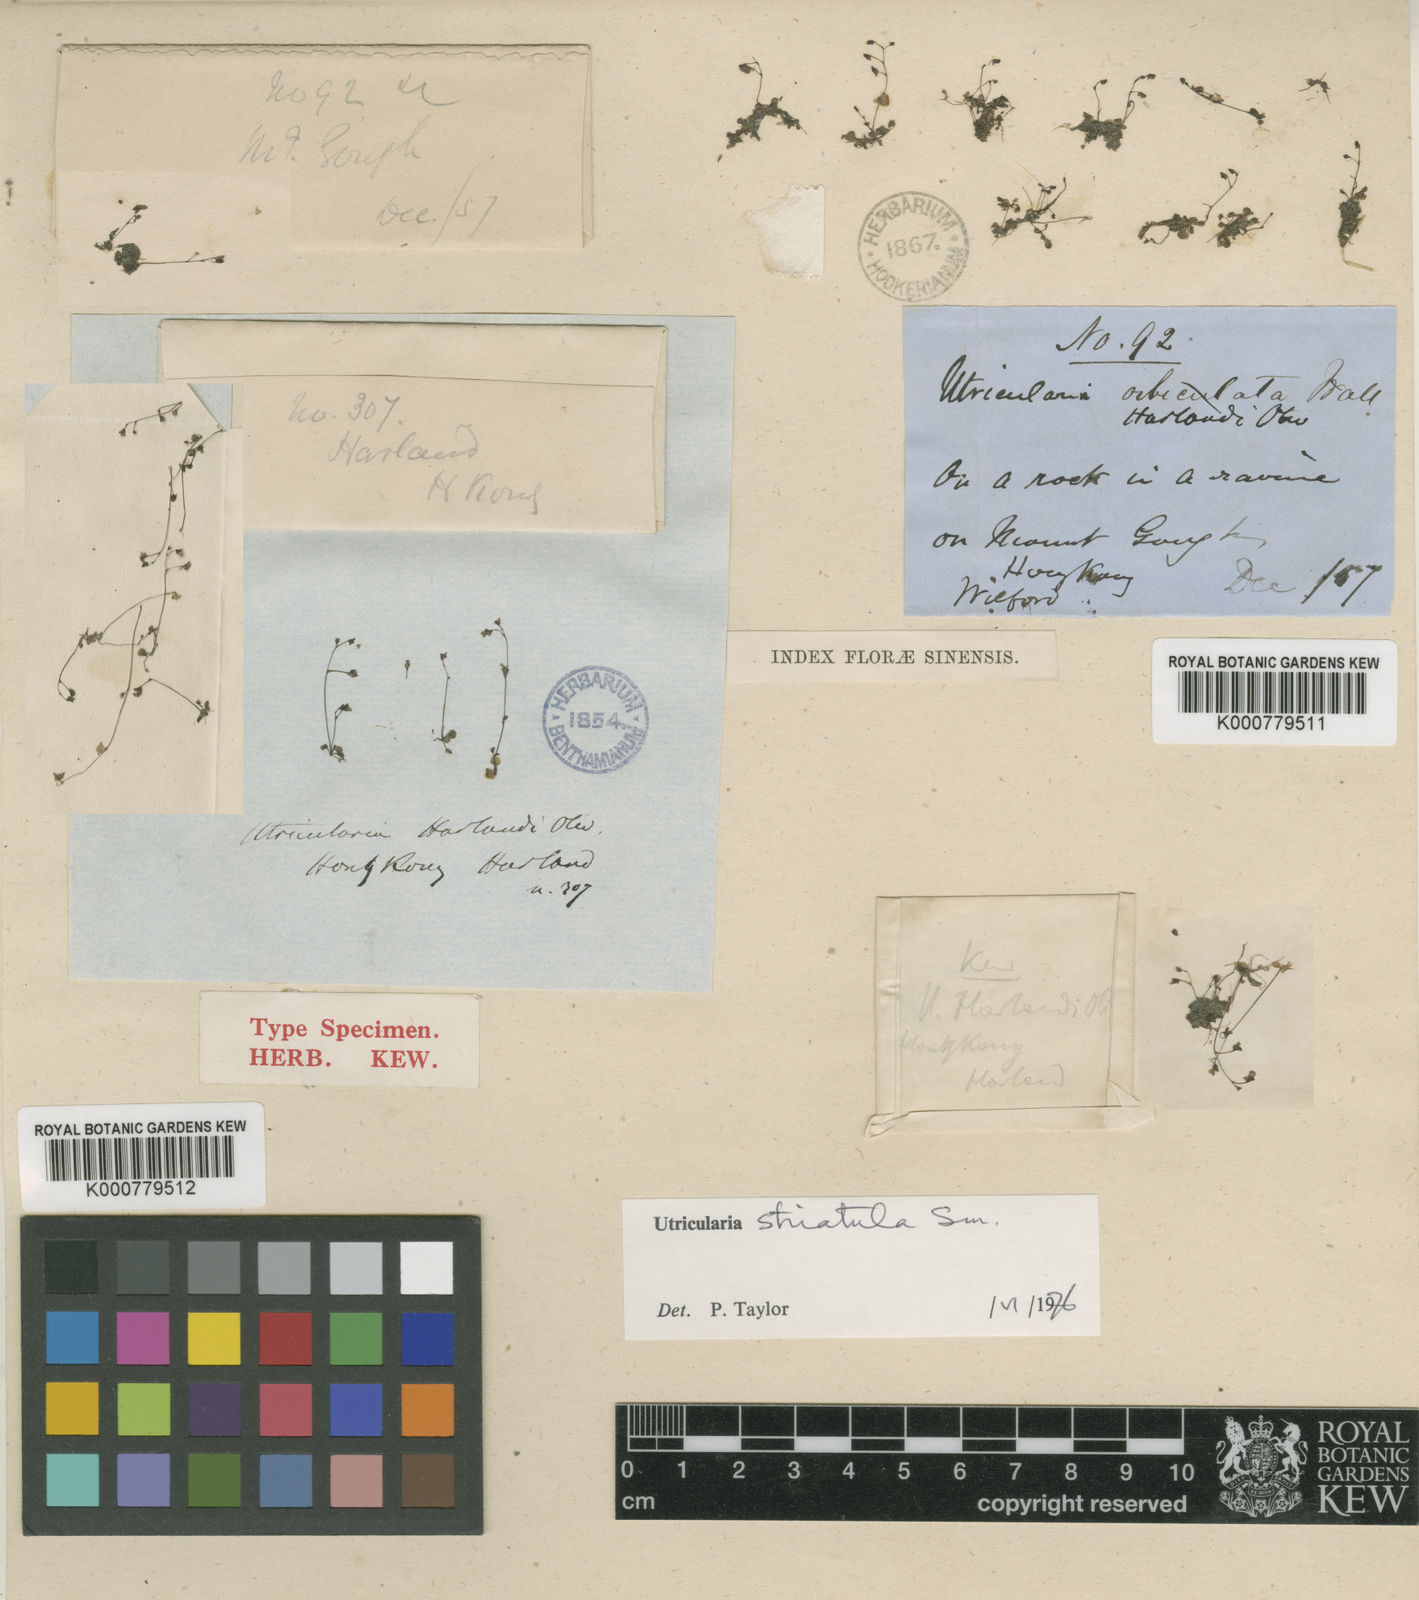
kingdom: Plantae
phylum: Tracheophyta
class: Magnoliopsida
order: Lamiales
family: Lentibulariaceae
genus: Utricularia
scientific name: Utricularia striatula
